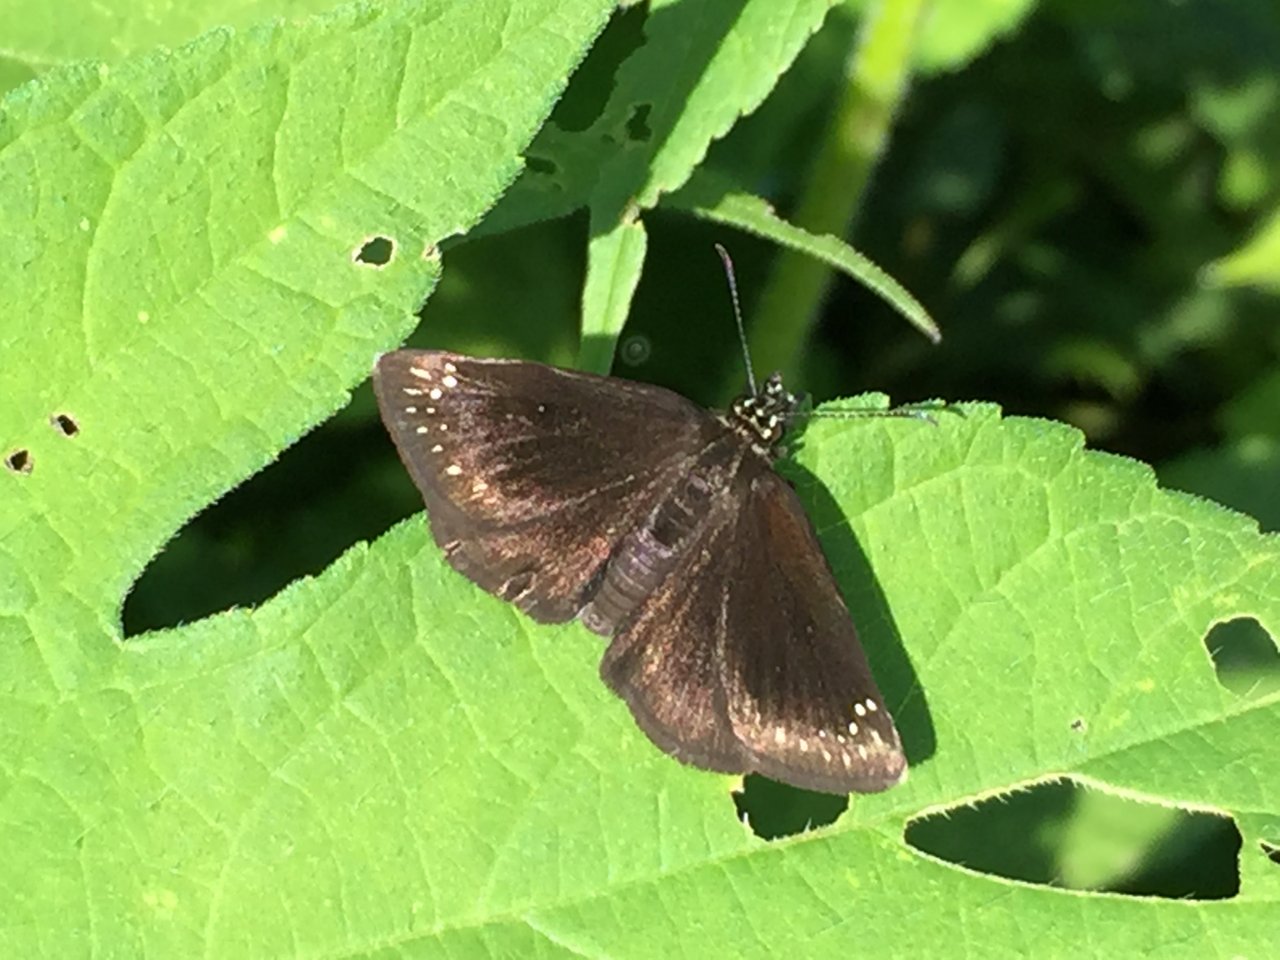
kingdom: Animalia
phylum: Arthropoda
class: Insecta
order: Lepidoptera
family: Hesperiidae
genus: Pholisora
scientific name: Pholisora catullus
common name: Common Sootywing
